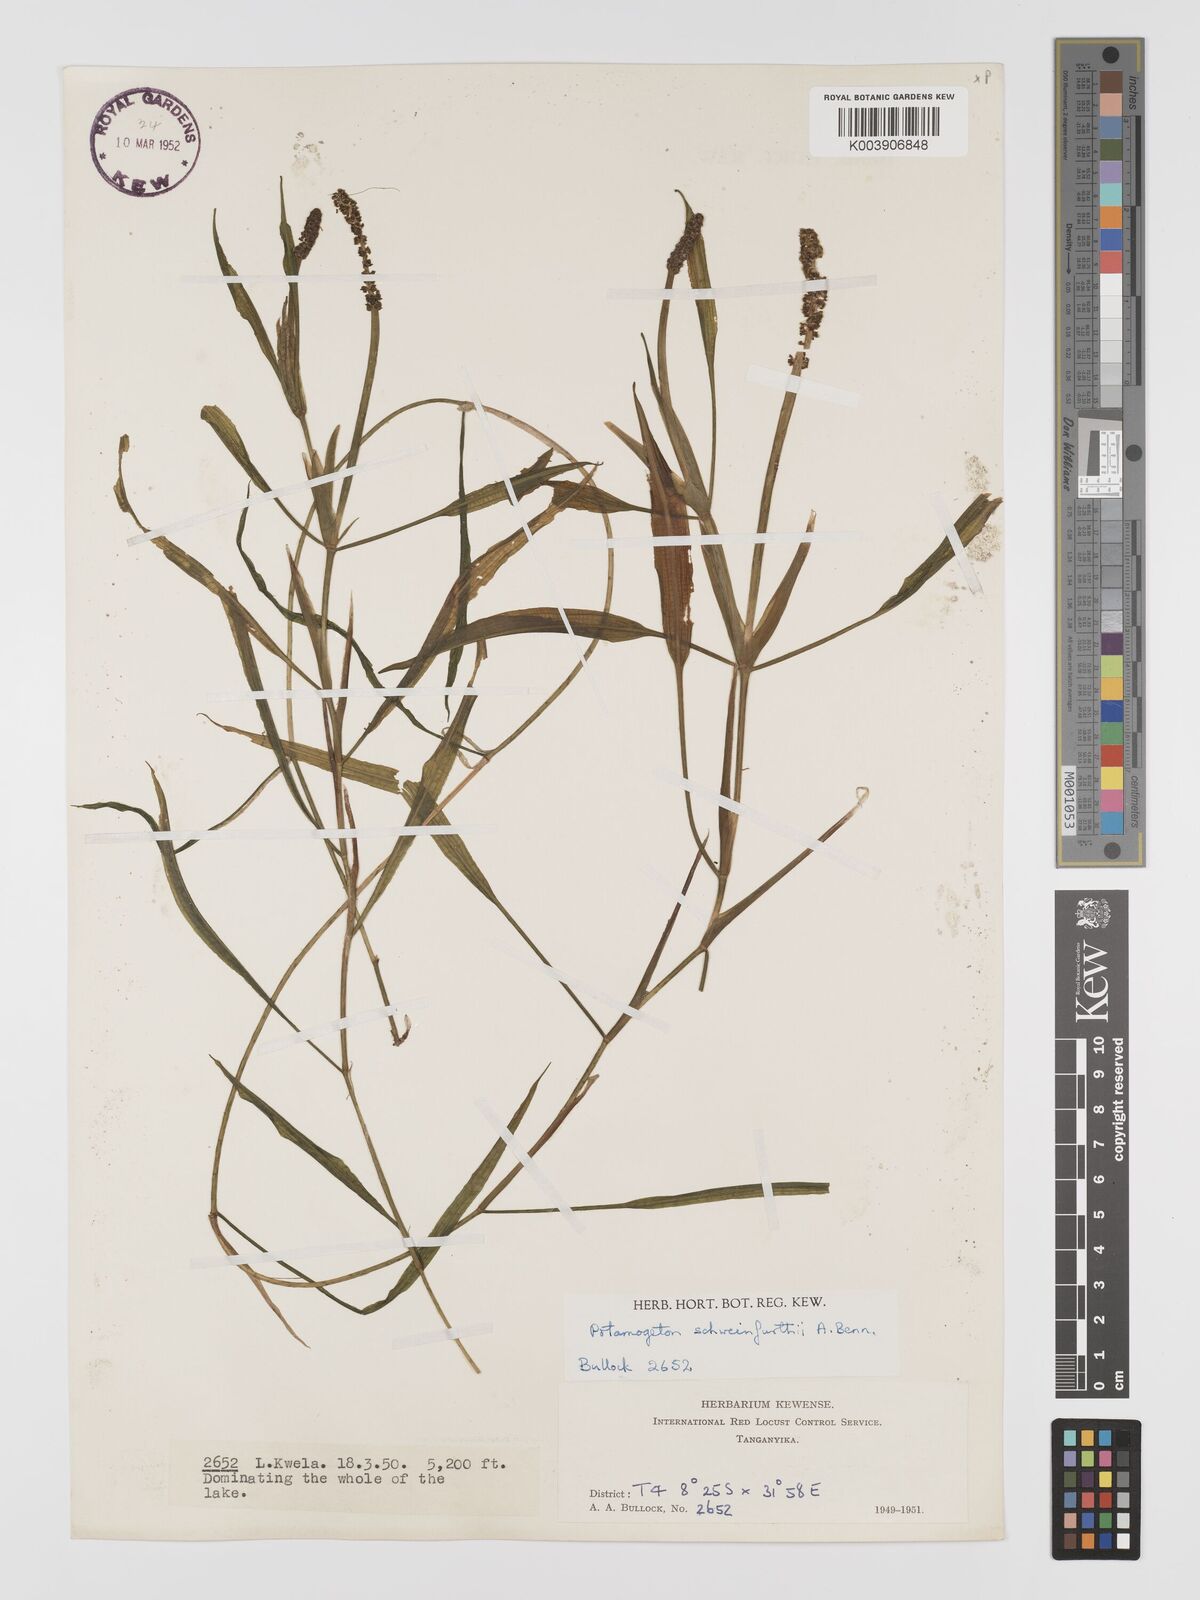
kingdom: Plantae
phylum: Tracheophyta
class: Liliopsida
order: Alismatales
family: Potamogetonaceae
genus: Potamogeton
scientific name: Potamogeton schweinfurthii
